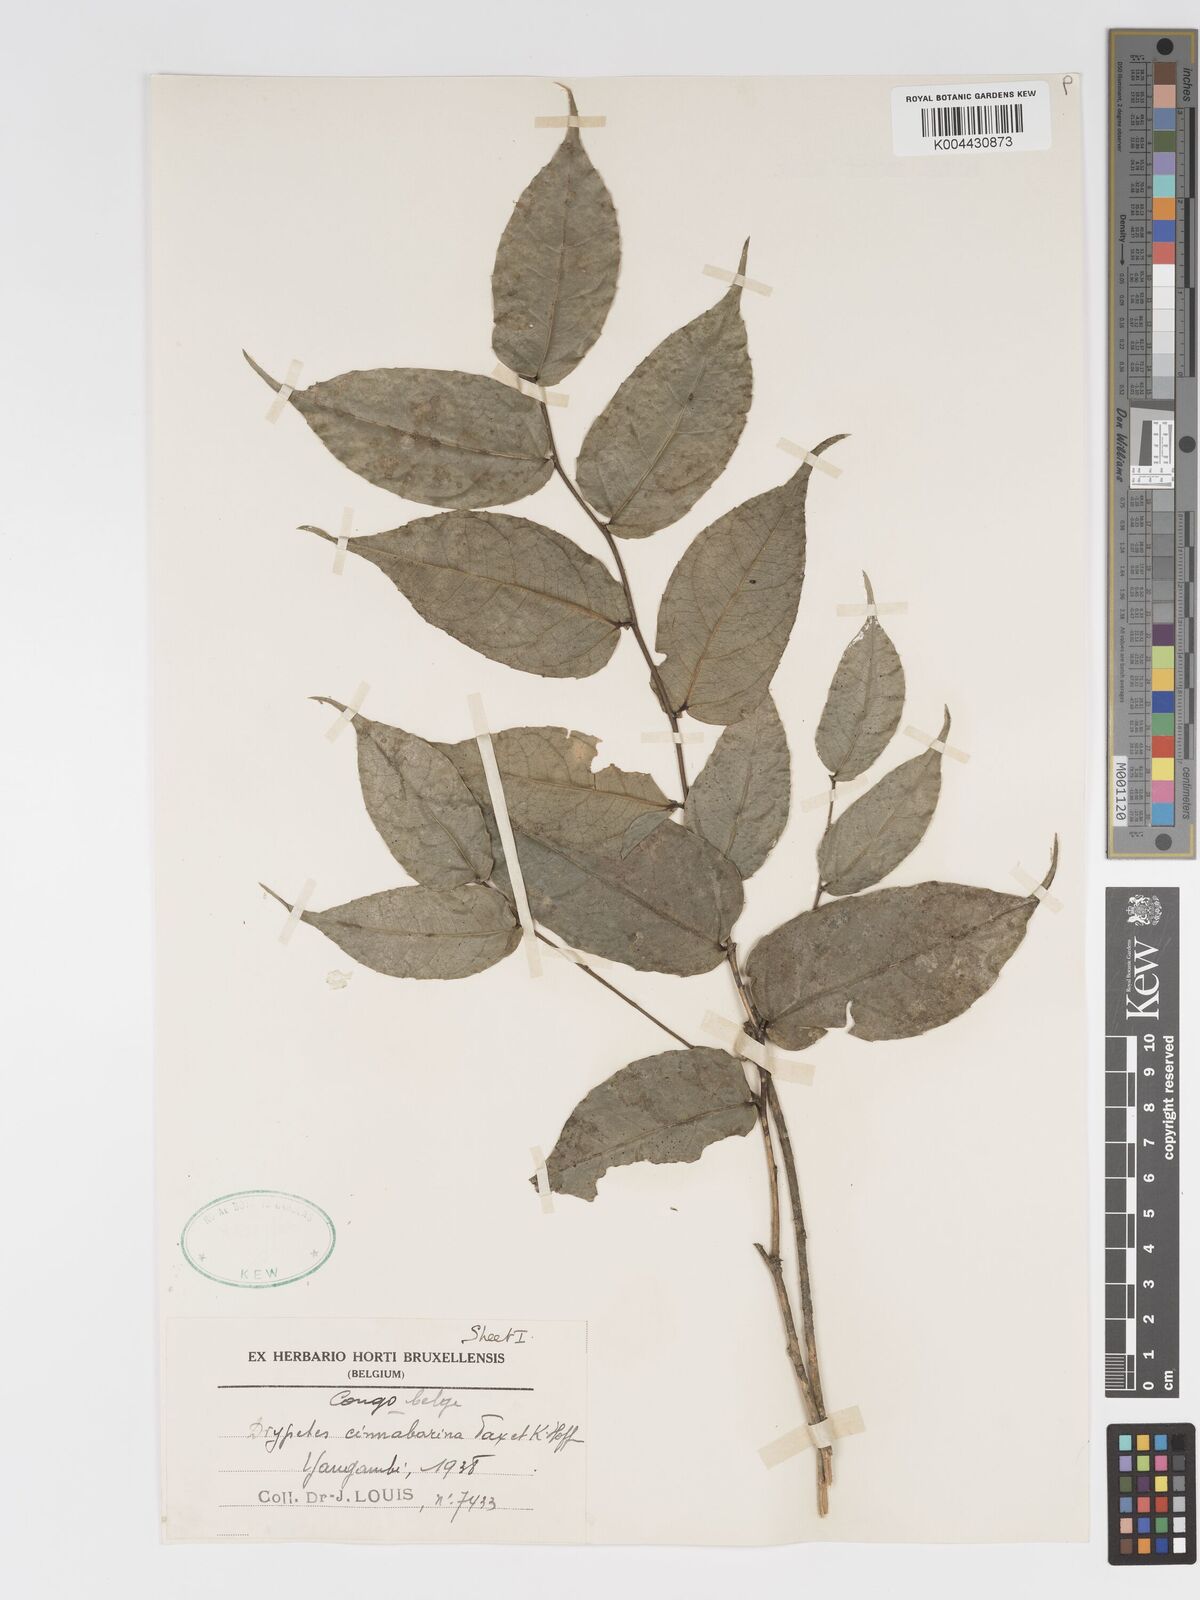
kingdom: Plantae
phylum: Tracheophyta
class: Magnoliopsida
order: Malpighiales
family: Putranjivaceae
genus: Drypetes
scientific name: Drypetes tessmanniana
